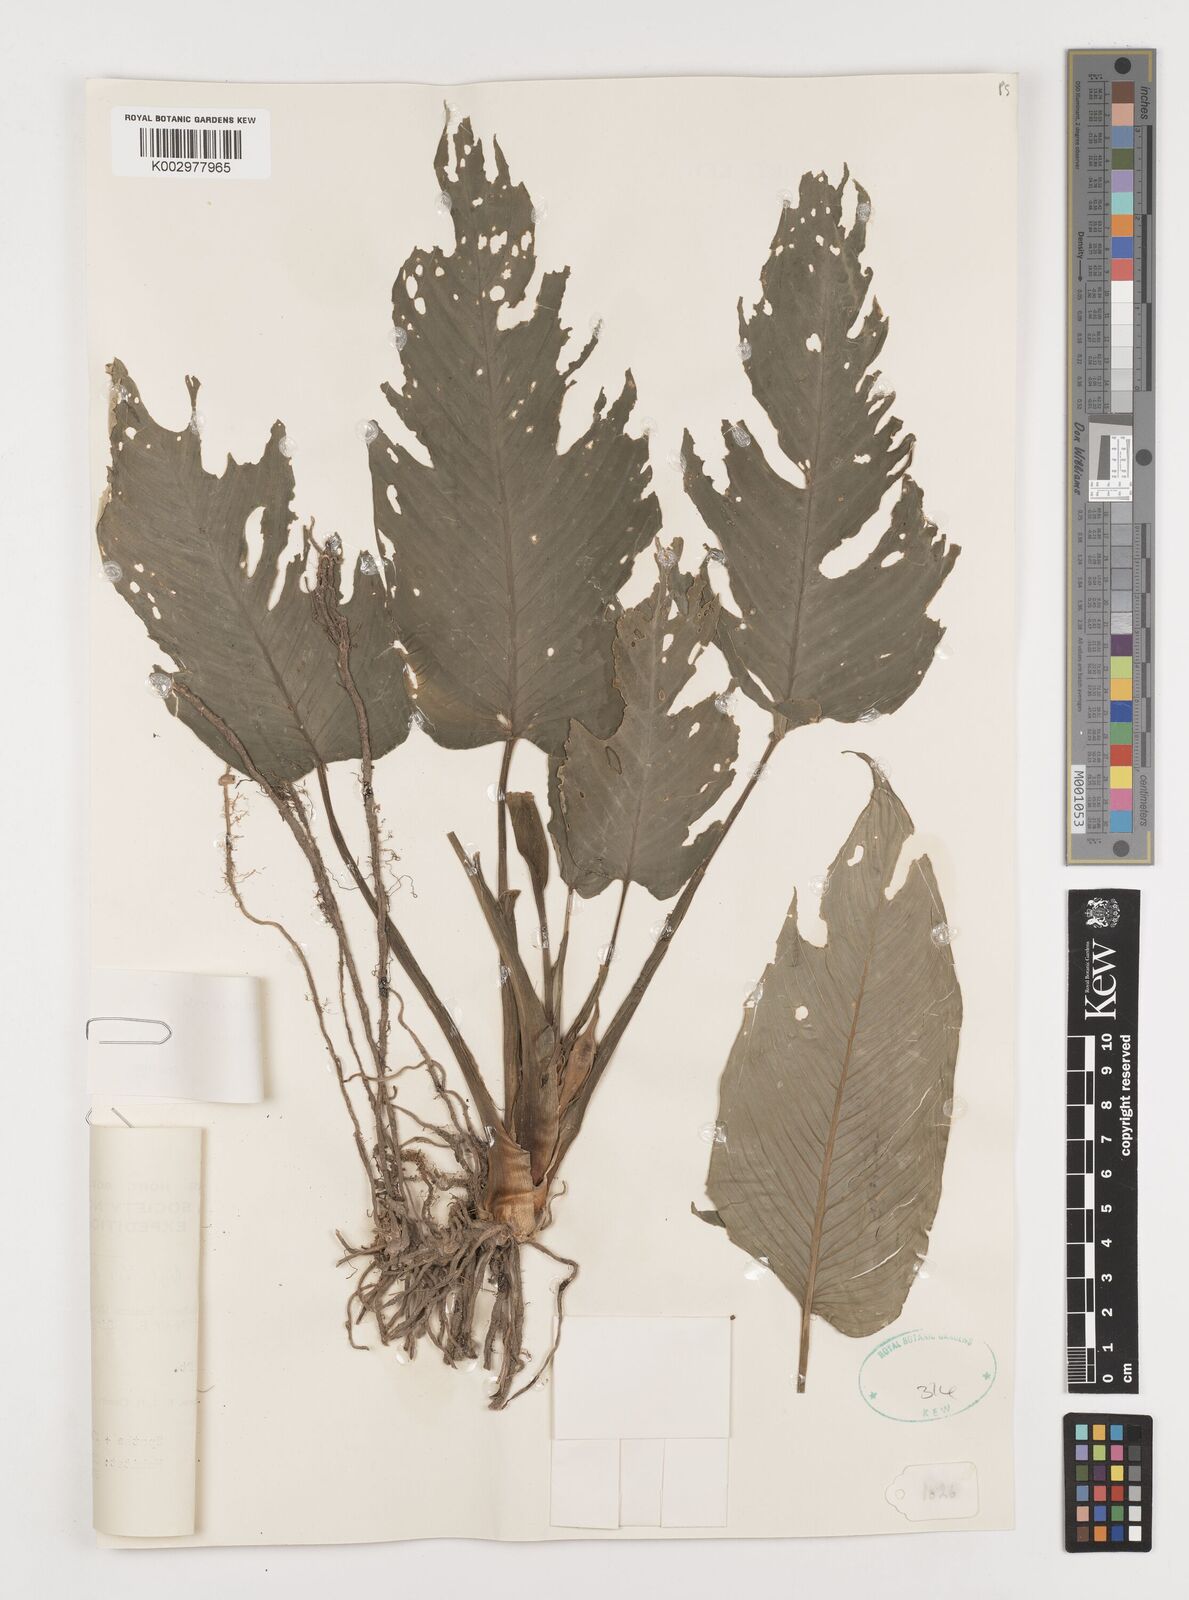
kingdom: Plantae
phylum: Tracheophyta
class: Liliopsida
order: Alismatales
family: Araceae
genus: Schismatoglottis
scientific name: Schismatoglottis ahmadii
